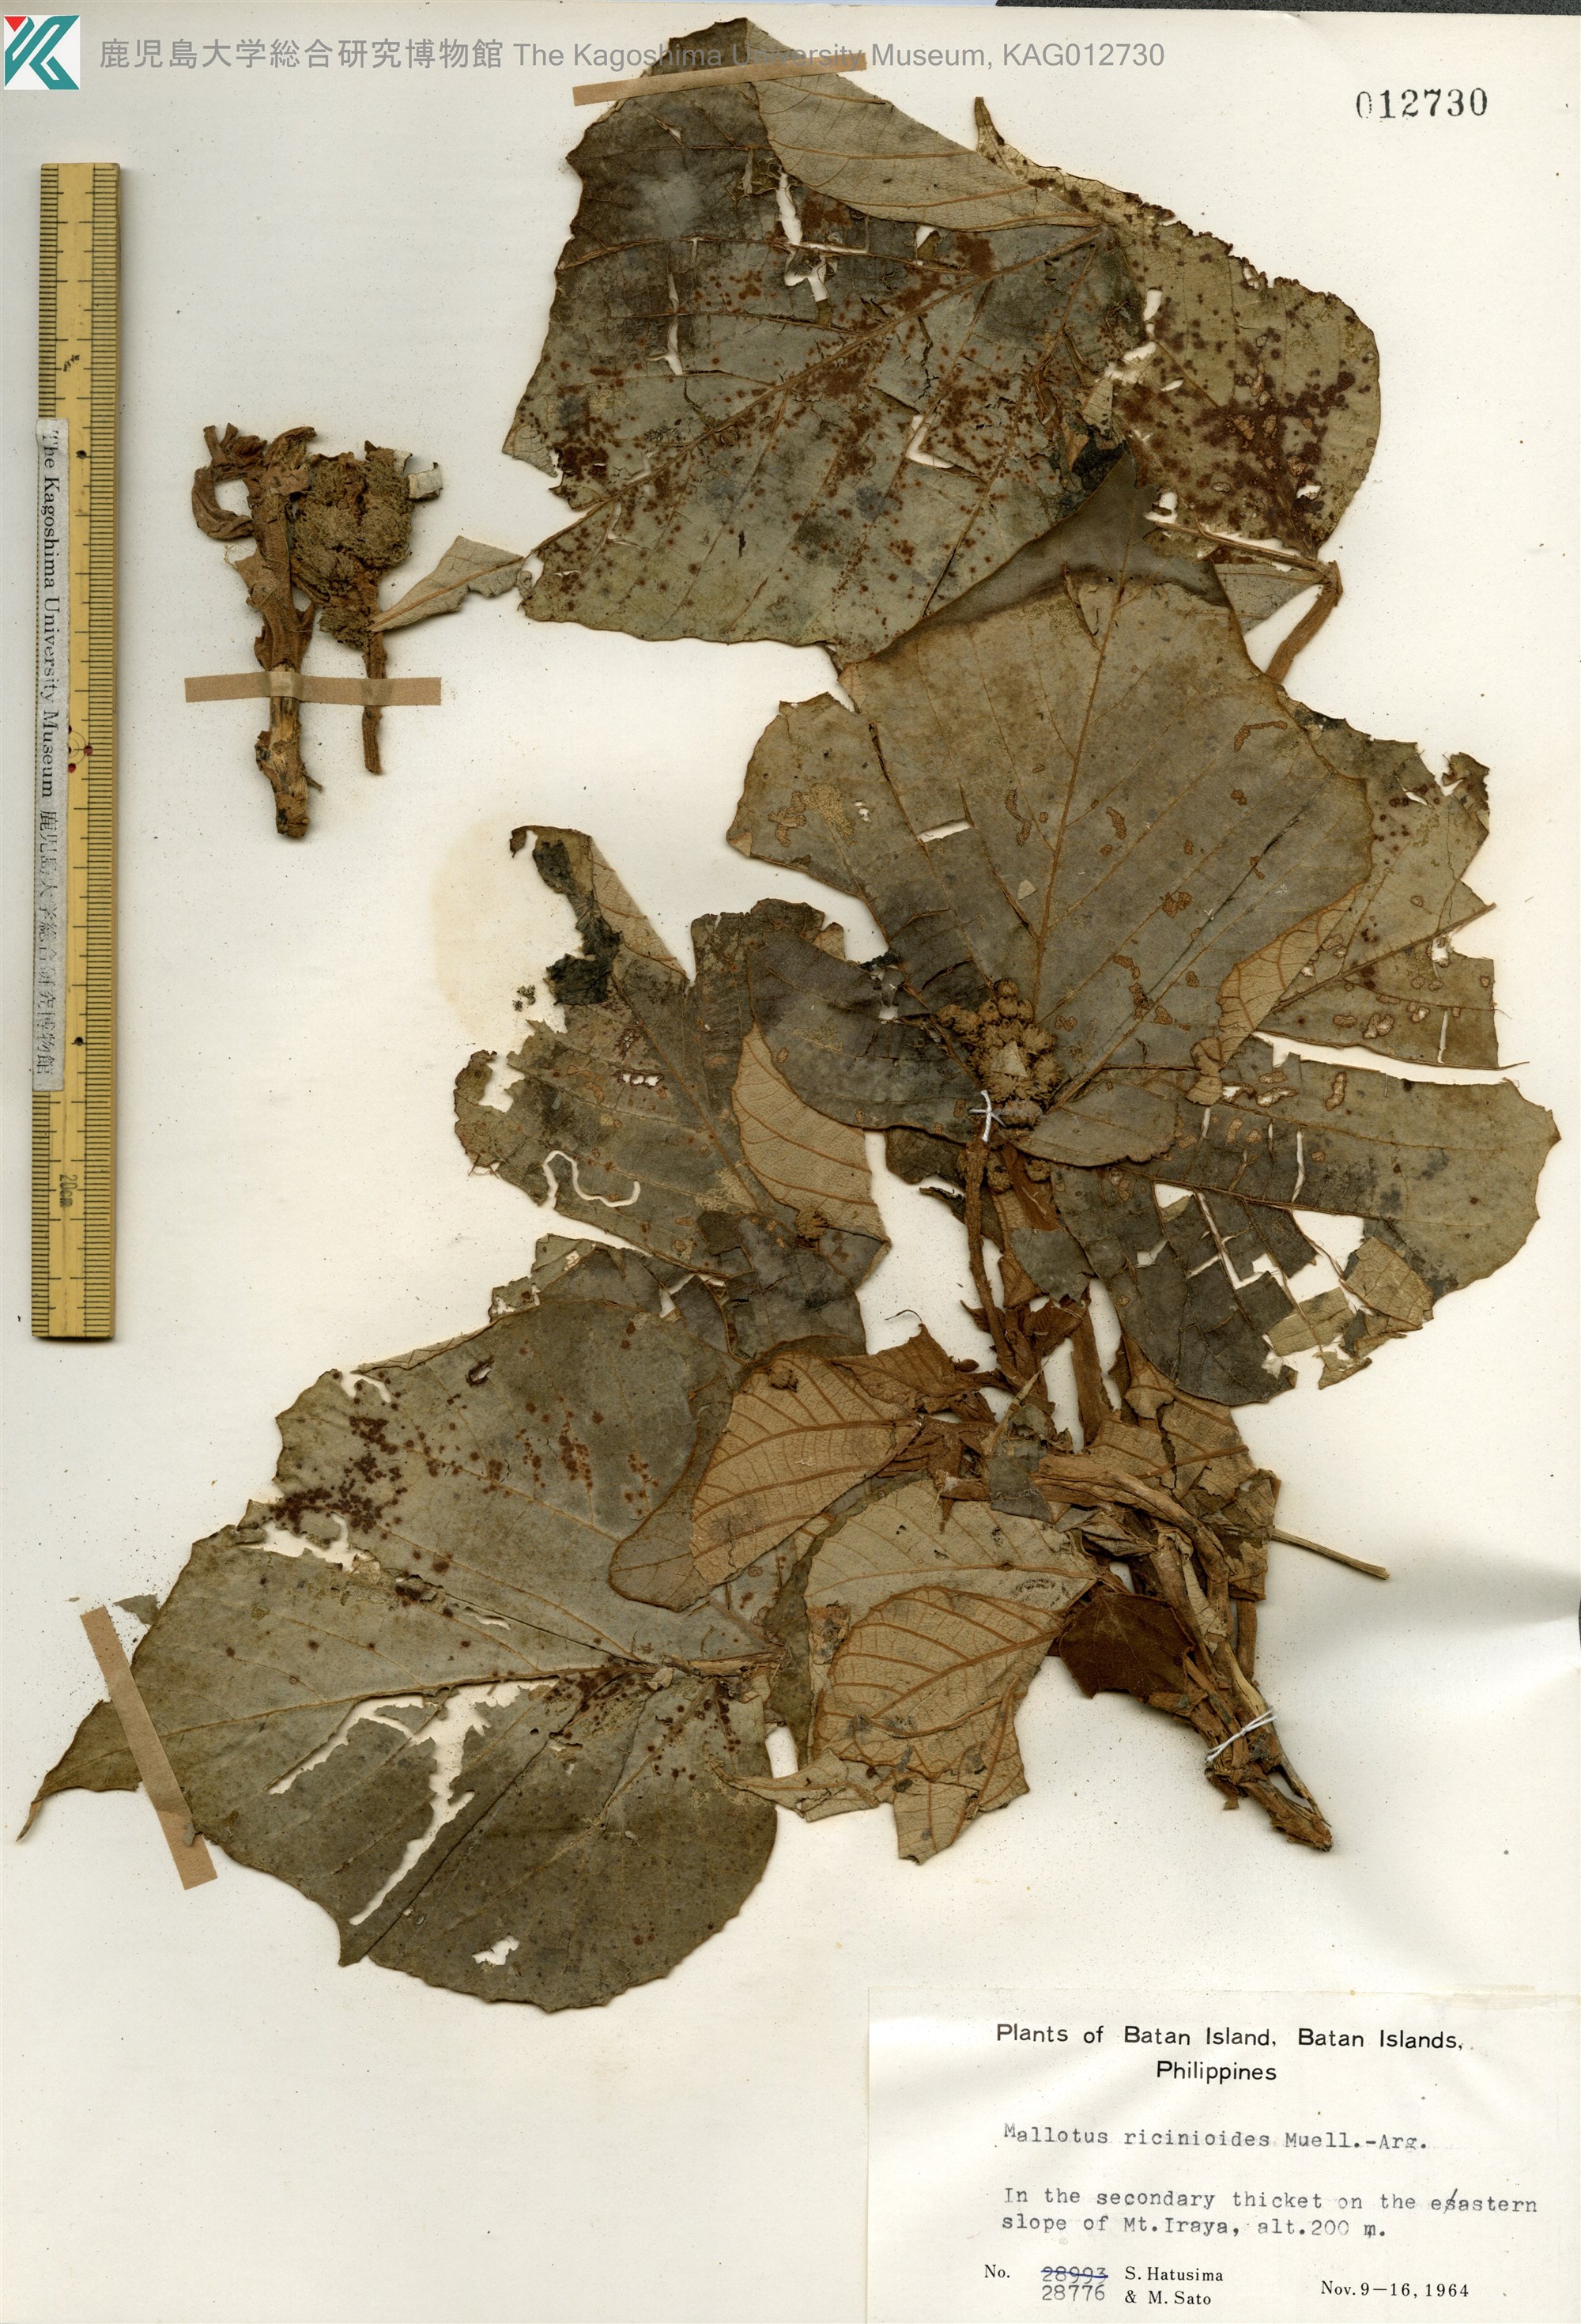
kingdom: Plantae
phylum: Tracheophyta
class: Magnoliopsida
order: Malpighiales
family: Euphorbiaceae
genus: Mallotus
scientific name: Mallotus mollissimus
